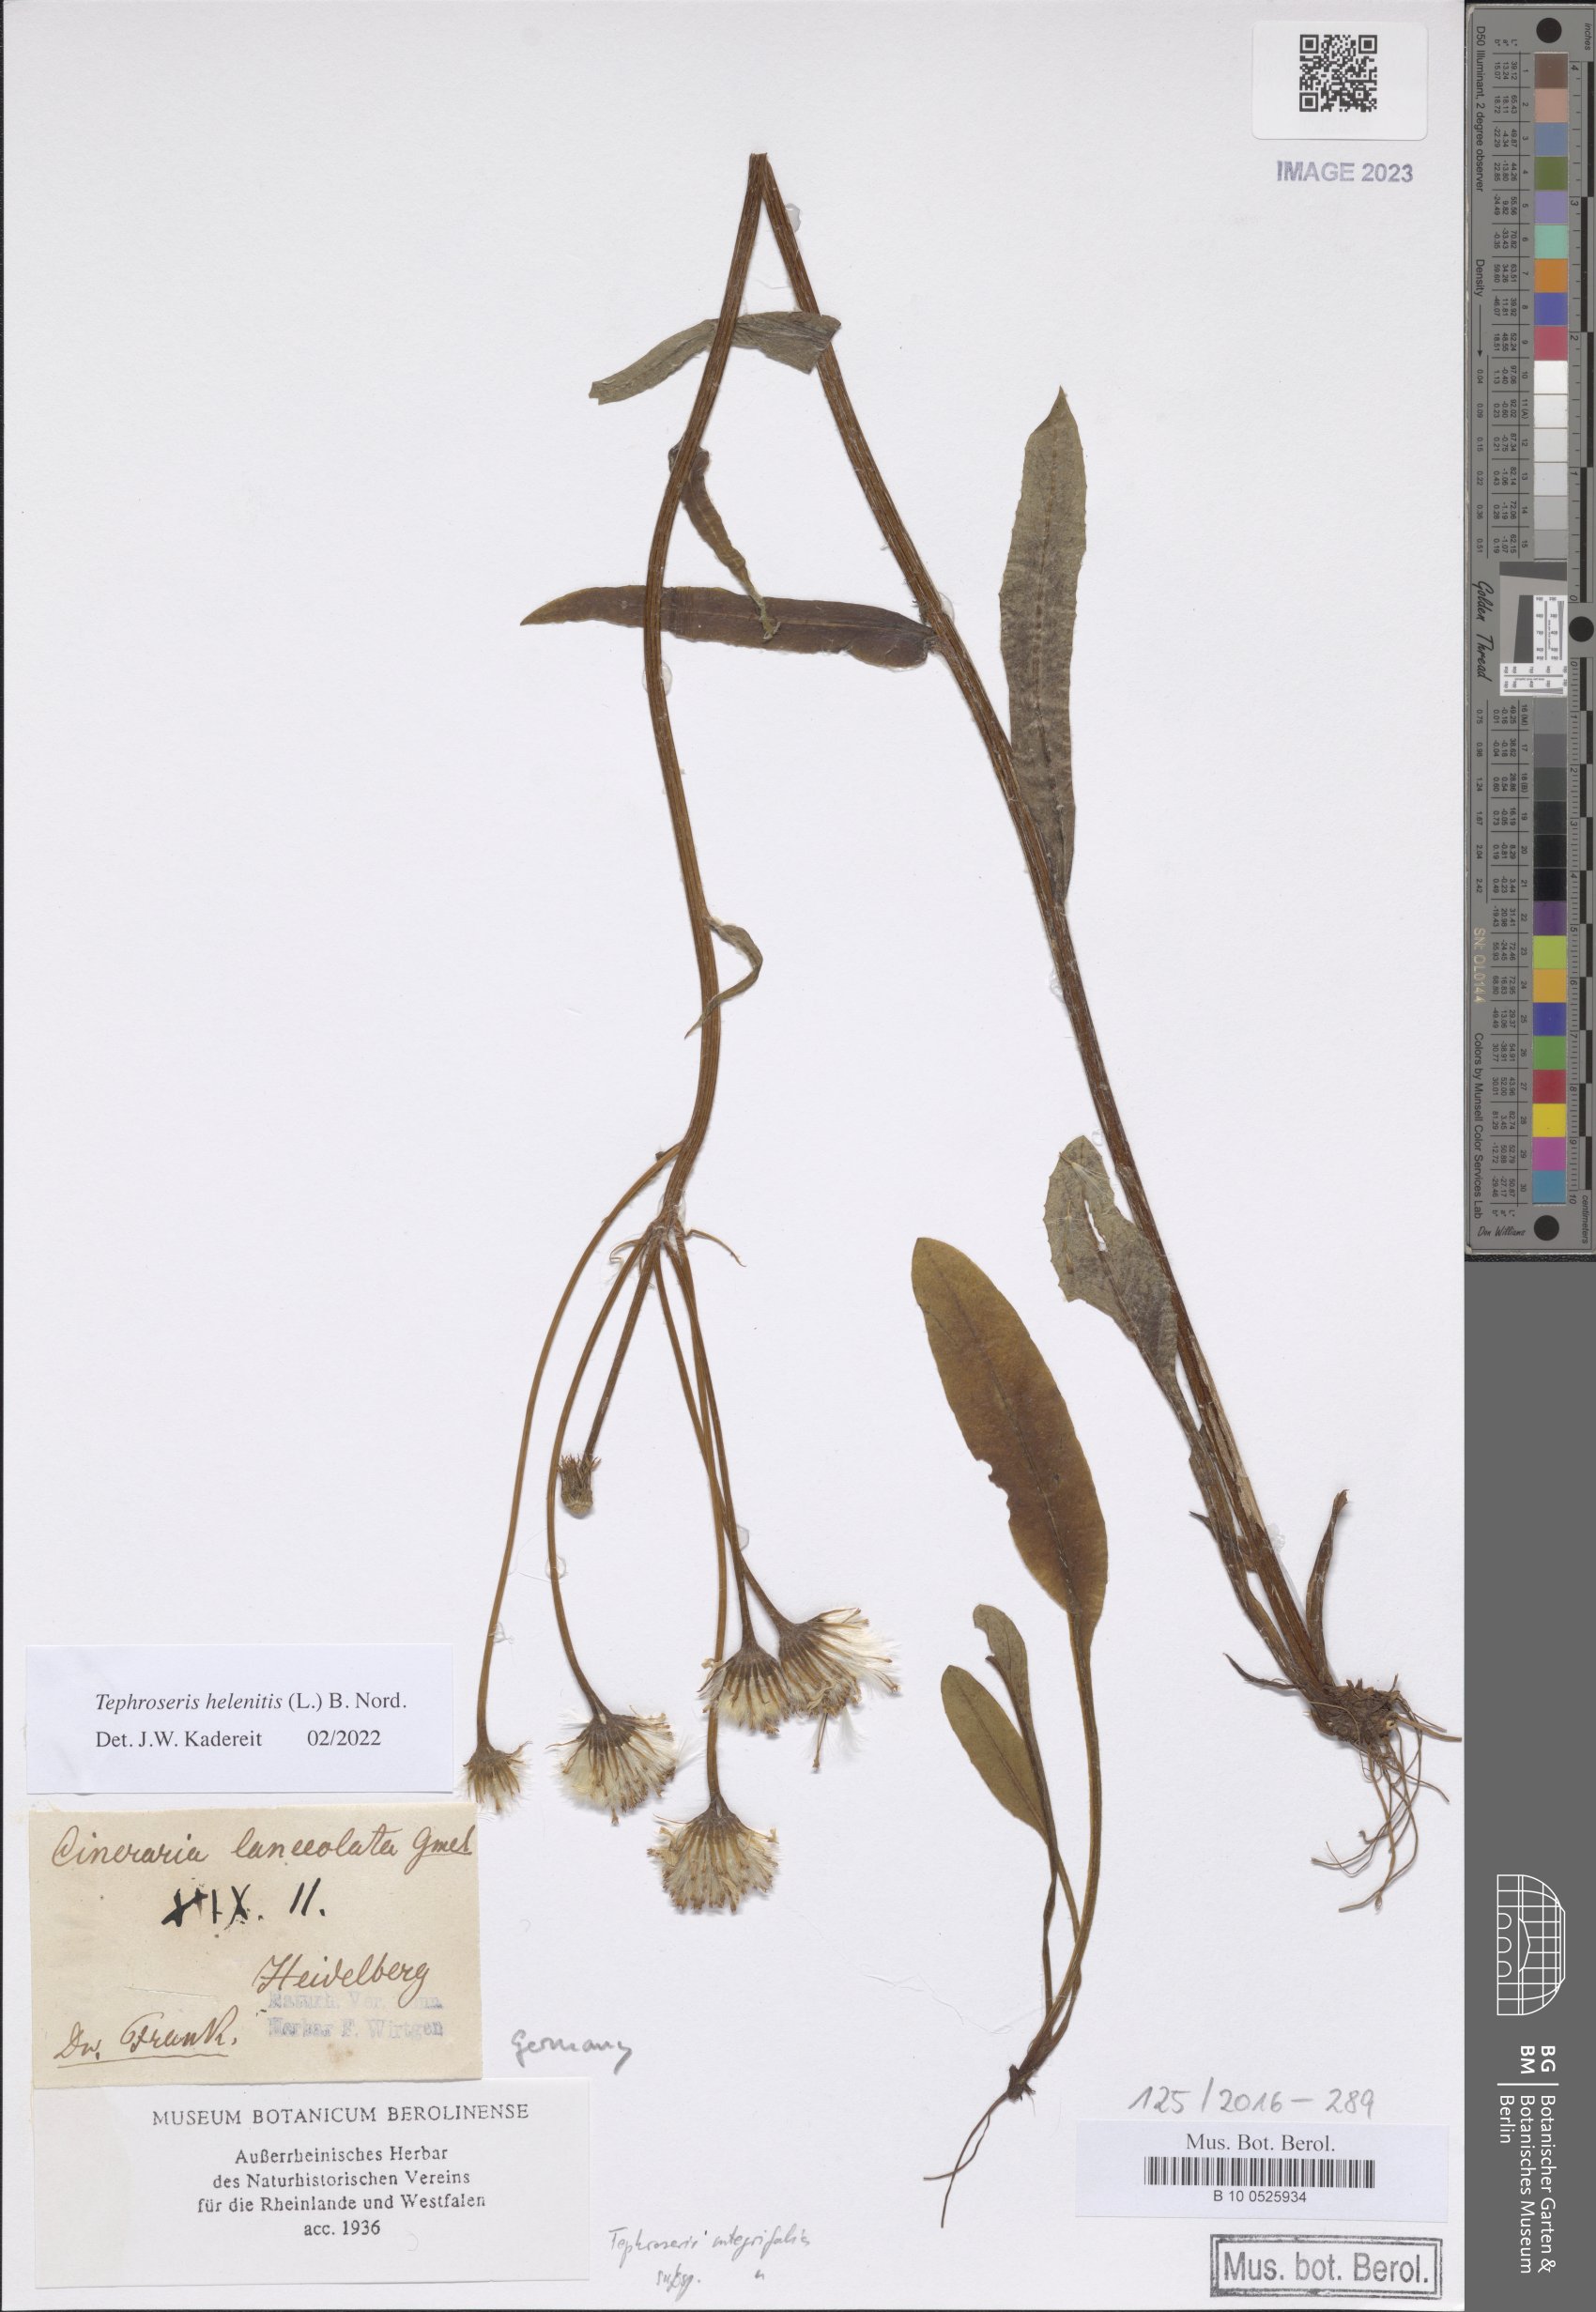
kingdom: Plantae
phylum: Tracheophyta
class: Magnoliopsida
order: Asterales
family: Asteraceae
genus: Tephroseris
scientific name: Tephroseris helenitis
